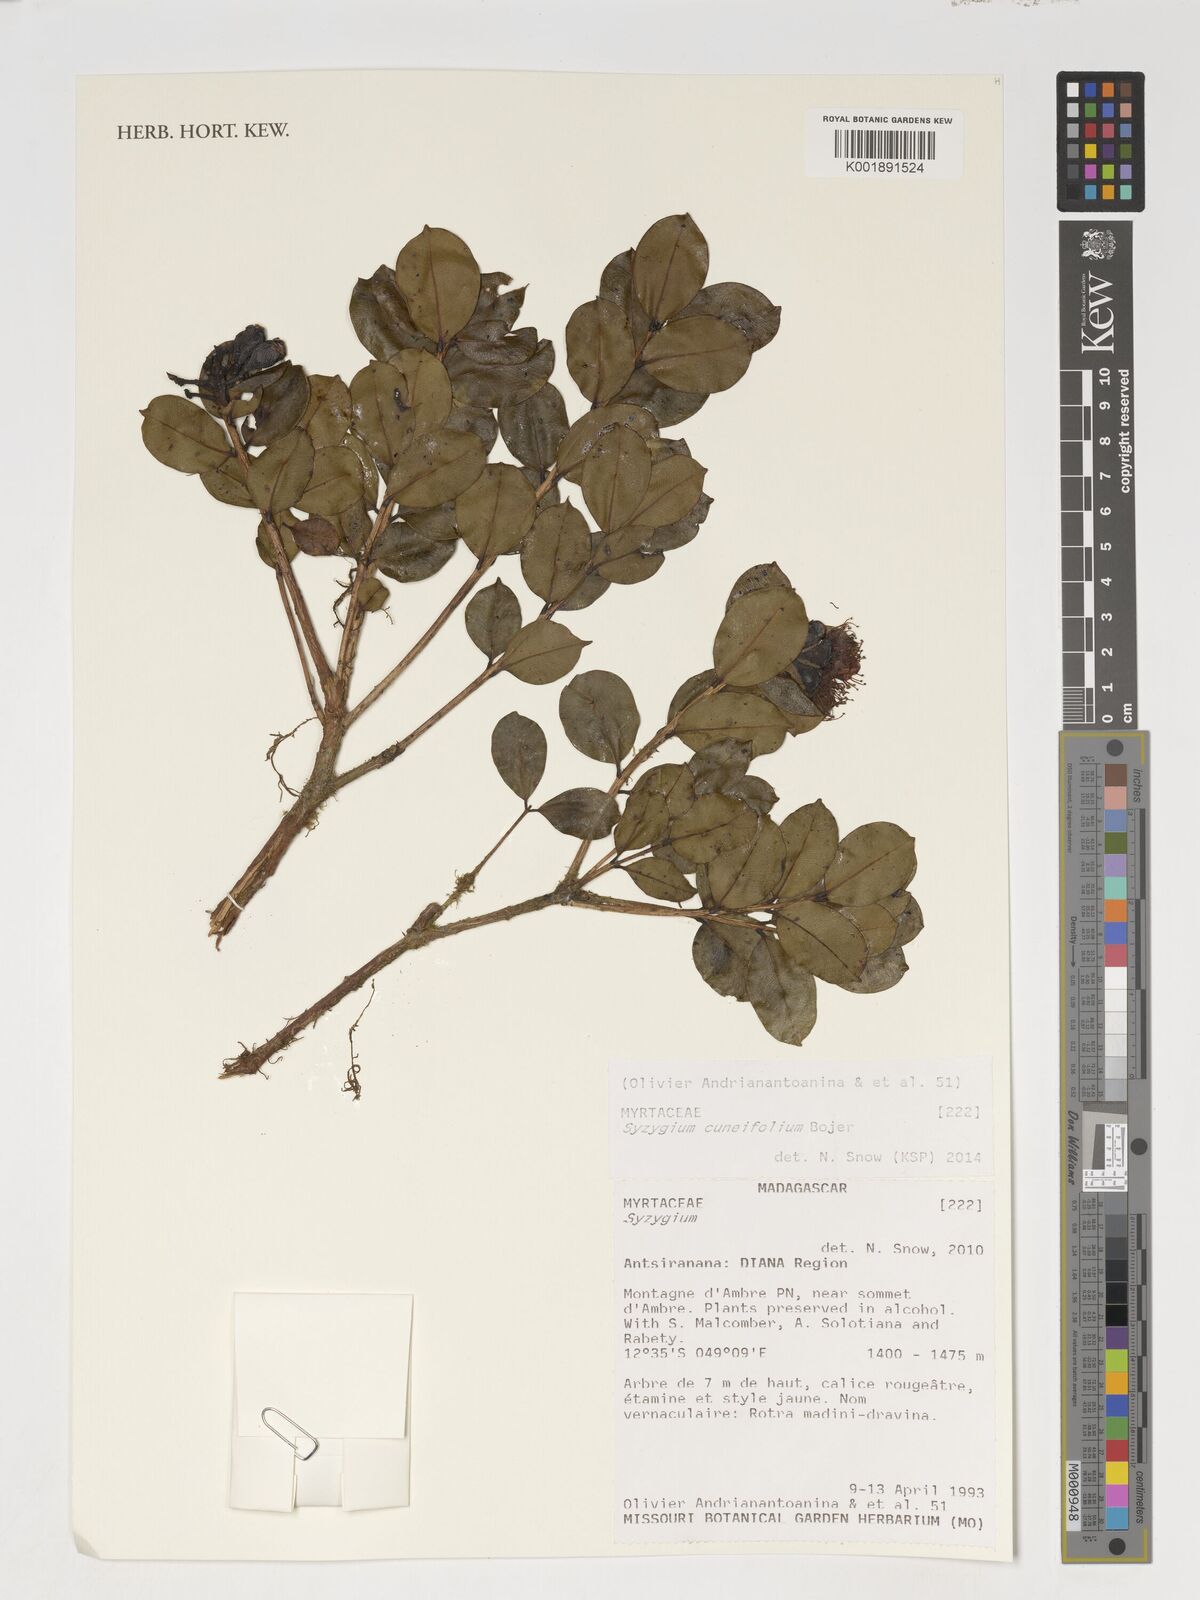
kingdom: Plantae
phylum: Tracheophyta
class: Magnoliopsida
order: Myrtales
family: Myrtaceae
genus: Syzygium
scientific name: Syzygium
